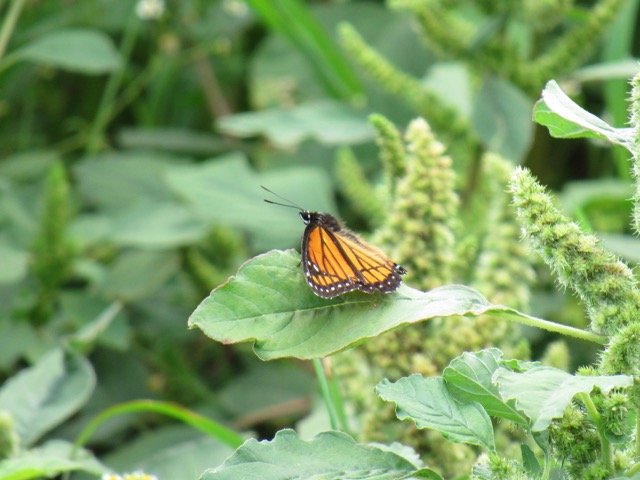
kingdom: Animalia
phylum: Arthropoda
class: Insecta
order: Lepidoptera
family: Nymphalidae
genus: Limenitis
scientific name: Limenitis archippus
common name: Viceroy
